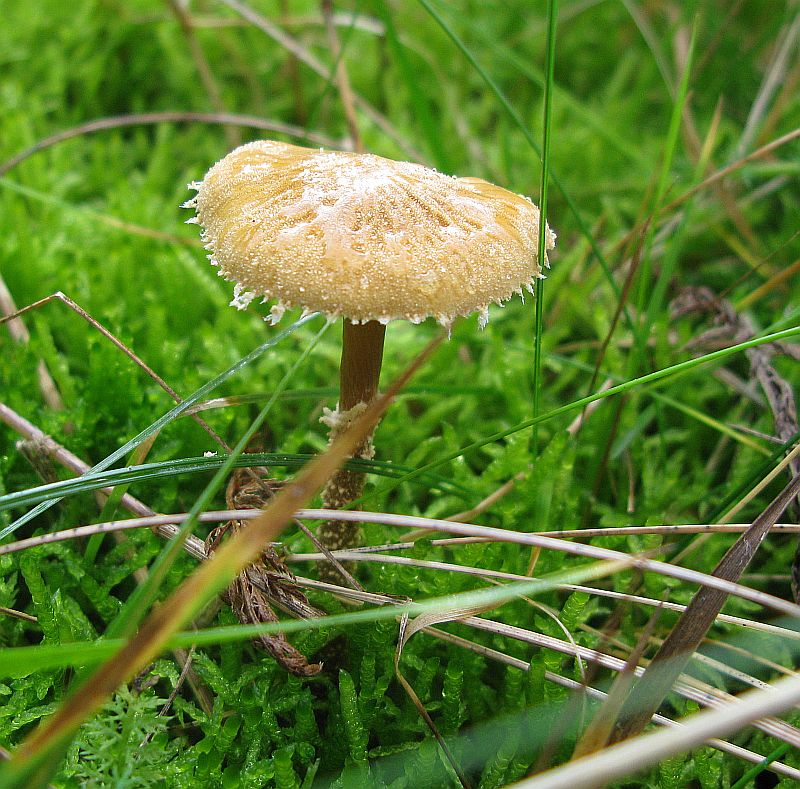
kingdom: Fungi
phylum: Basidiomycota
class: Agaricomycetes
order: Agaricales
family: Tricholomataceae
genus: Cystoderma
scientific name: Cystoderma amianthinum
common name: okkergul grynhat
